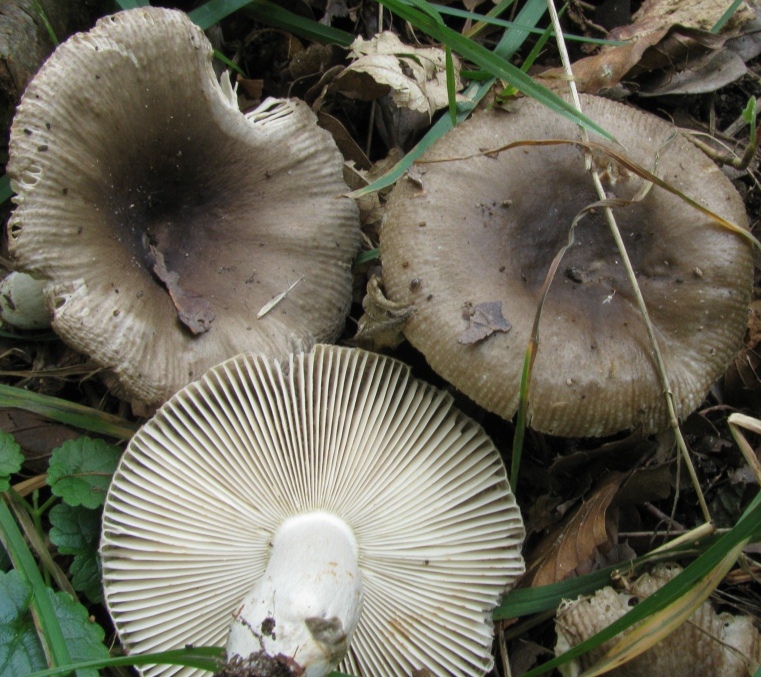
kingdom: Fungi
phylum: Basidiomycota
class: Agaricomycetes
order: Russulales
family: Russulaceae
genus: Russula
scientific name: Russula amoenolens
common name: skarp kam-skørhat
